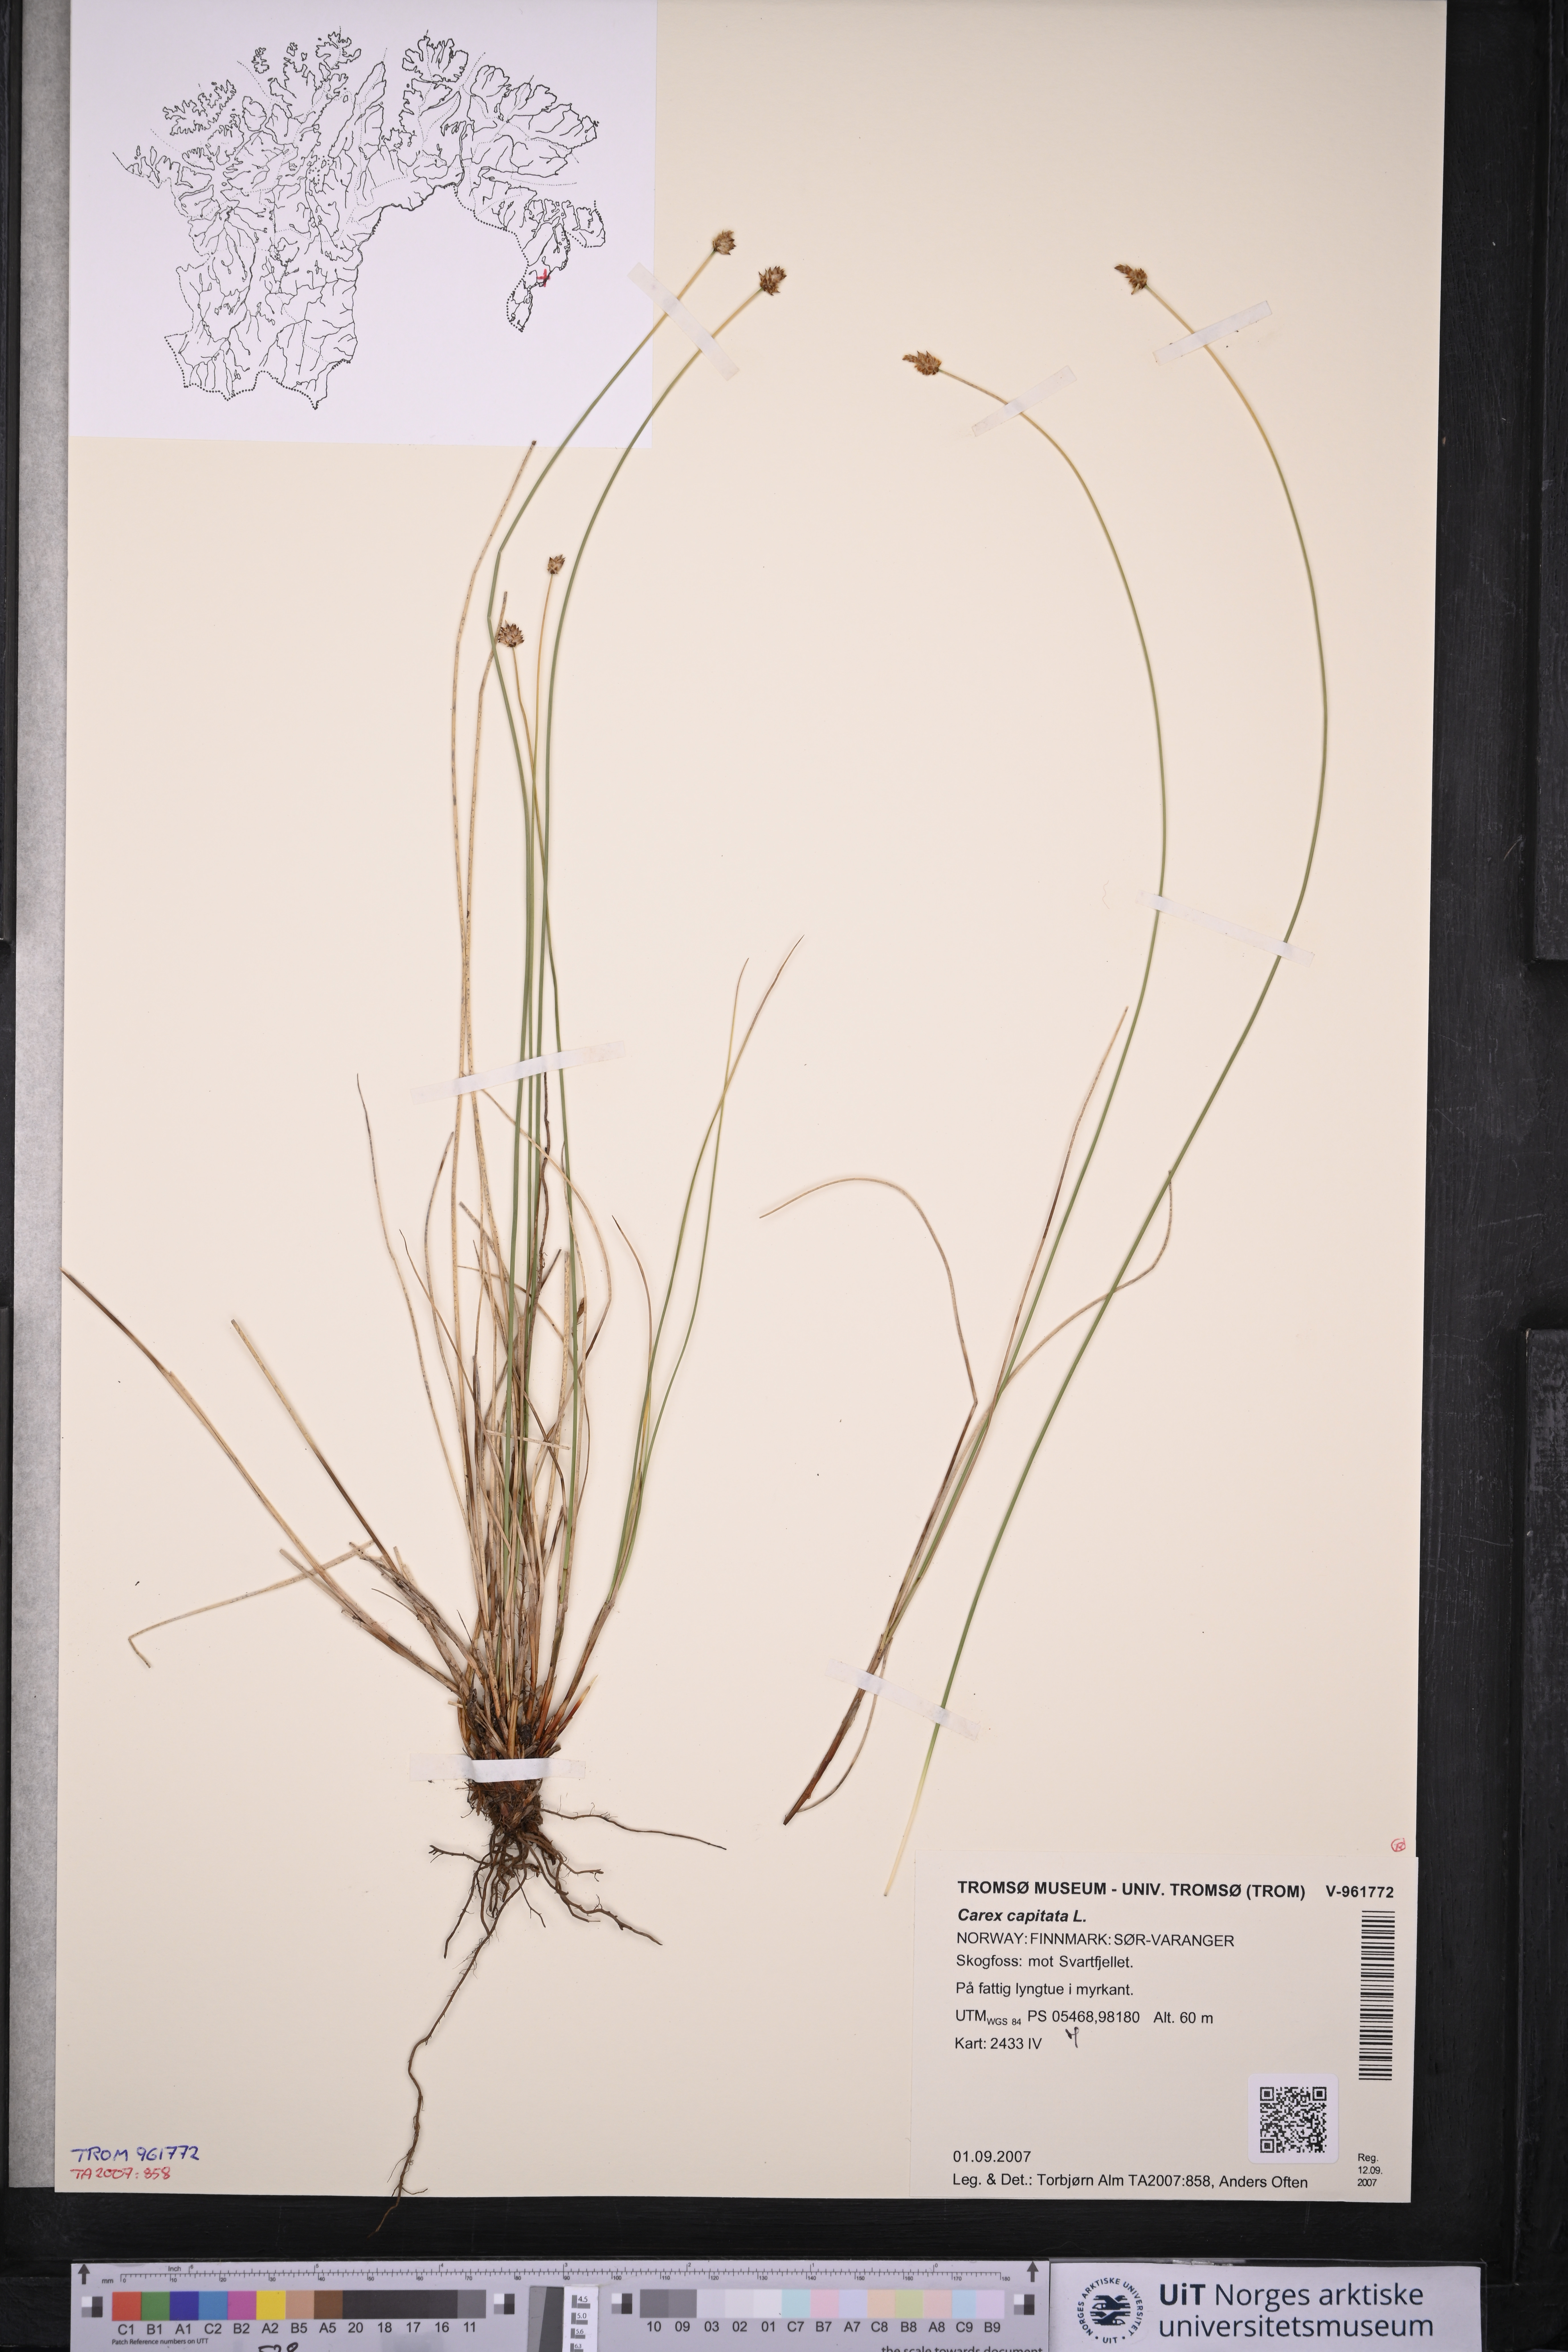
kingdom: Plantae
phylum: Tracheophyta
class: Liliopsida
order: Poales
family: Cyperaceae
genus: Carex
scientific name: Carex capitata
